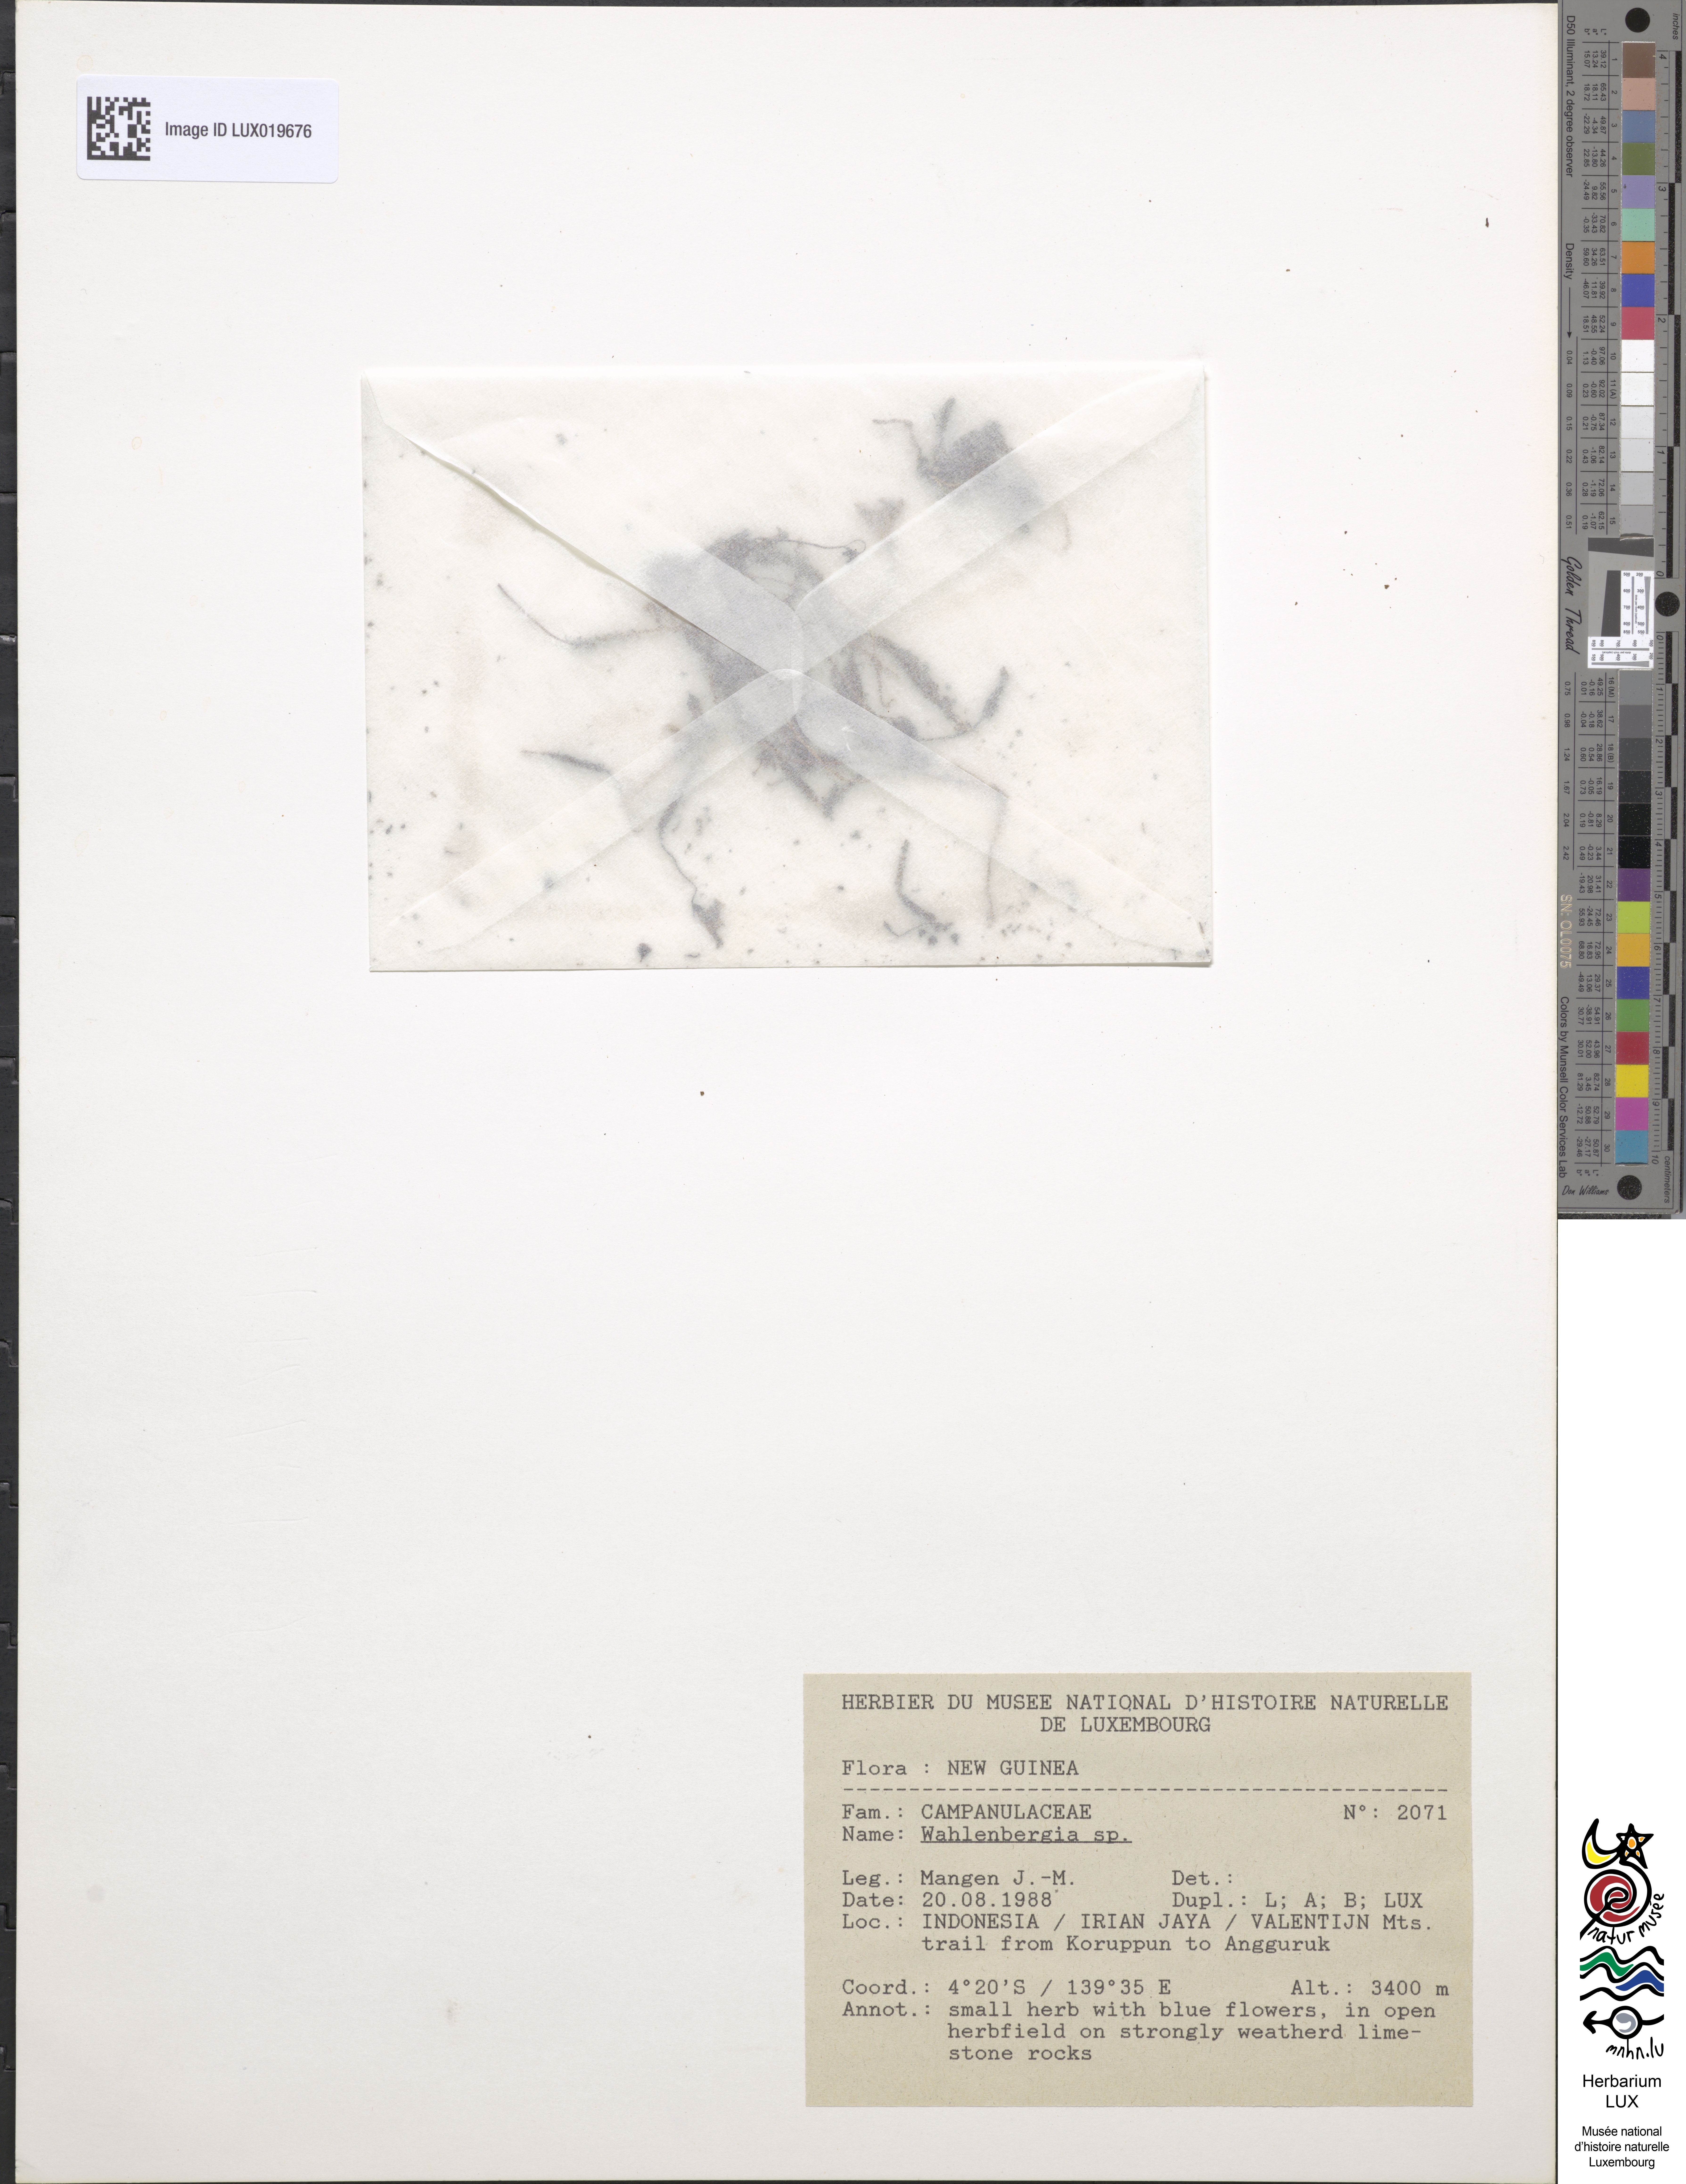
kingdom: Plantae
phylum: Tracheophyta
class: Magnoliopsida
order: Asterales
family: Campanulaceae
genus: Wahlenbergia
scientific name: Wahlenbergia
